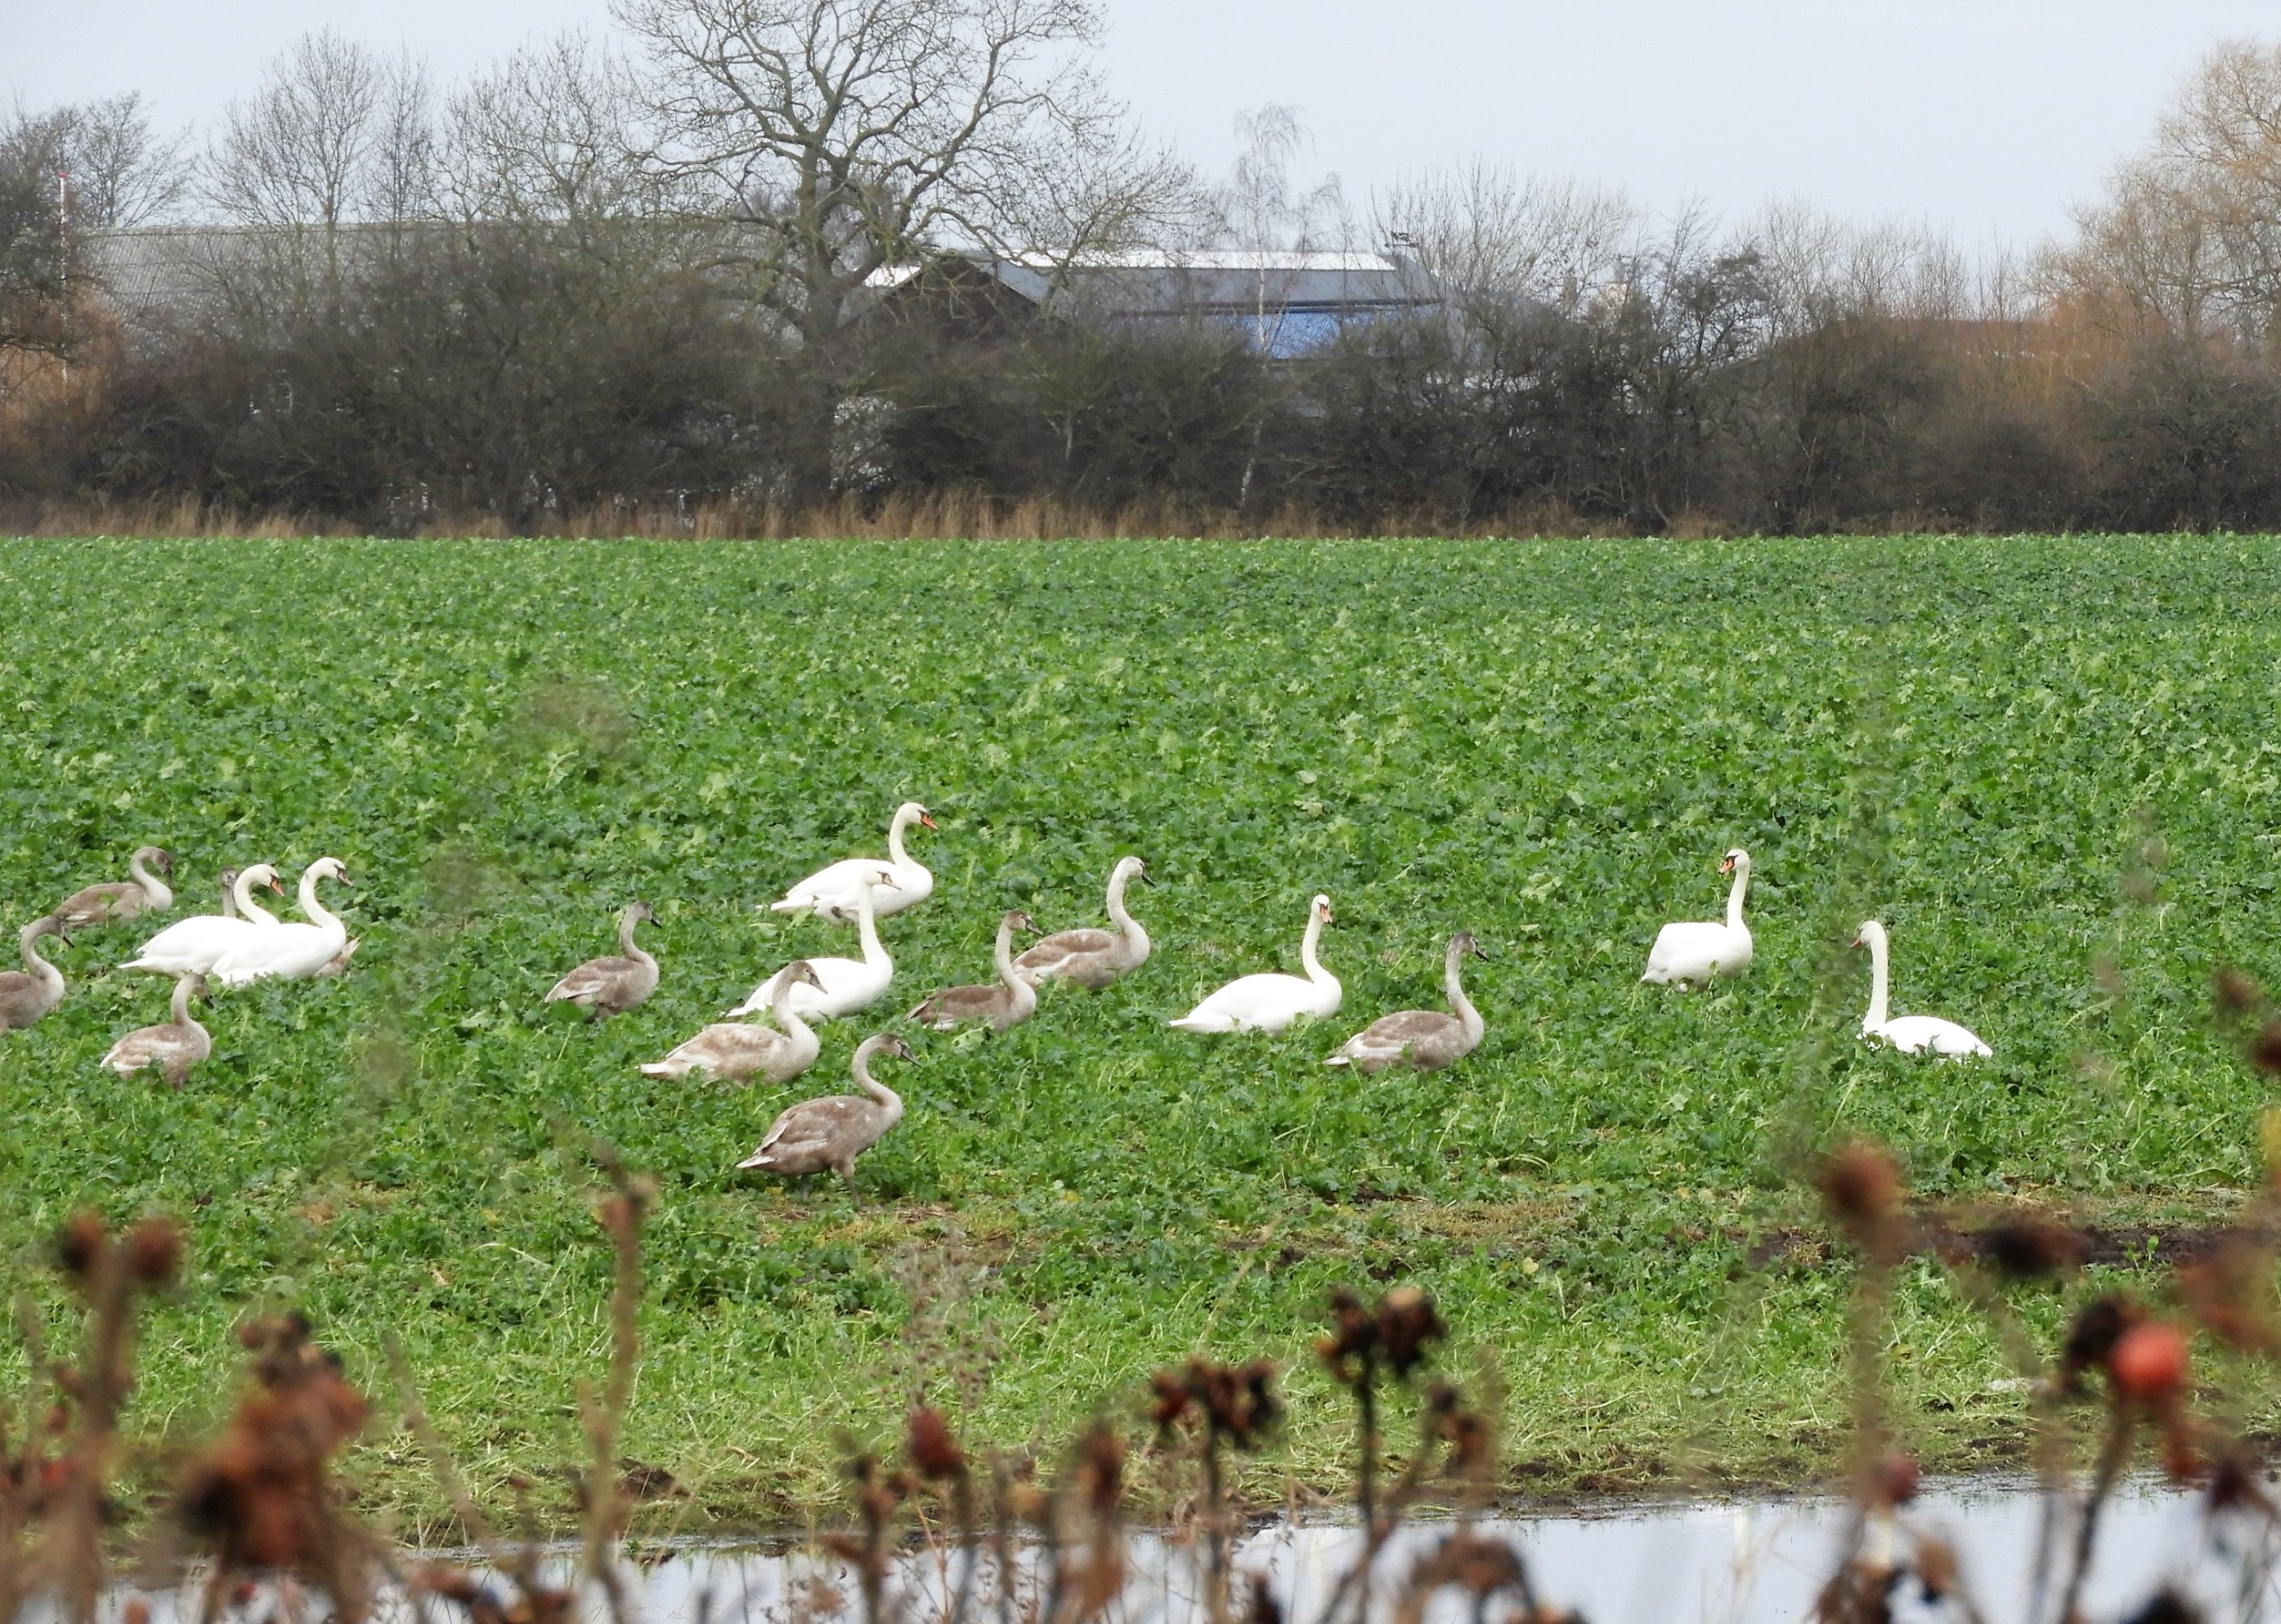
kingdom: Animalia
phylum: Chordata
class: Aves
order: Anseriformes
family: Anatidae
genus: Cygnus
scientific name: Cygnus olor
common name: Knopsvane
